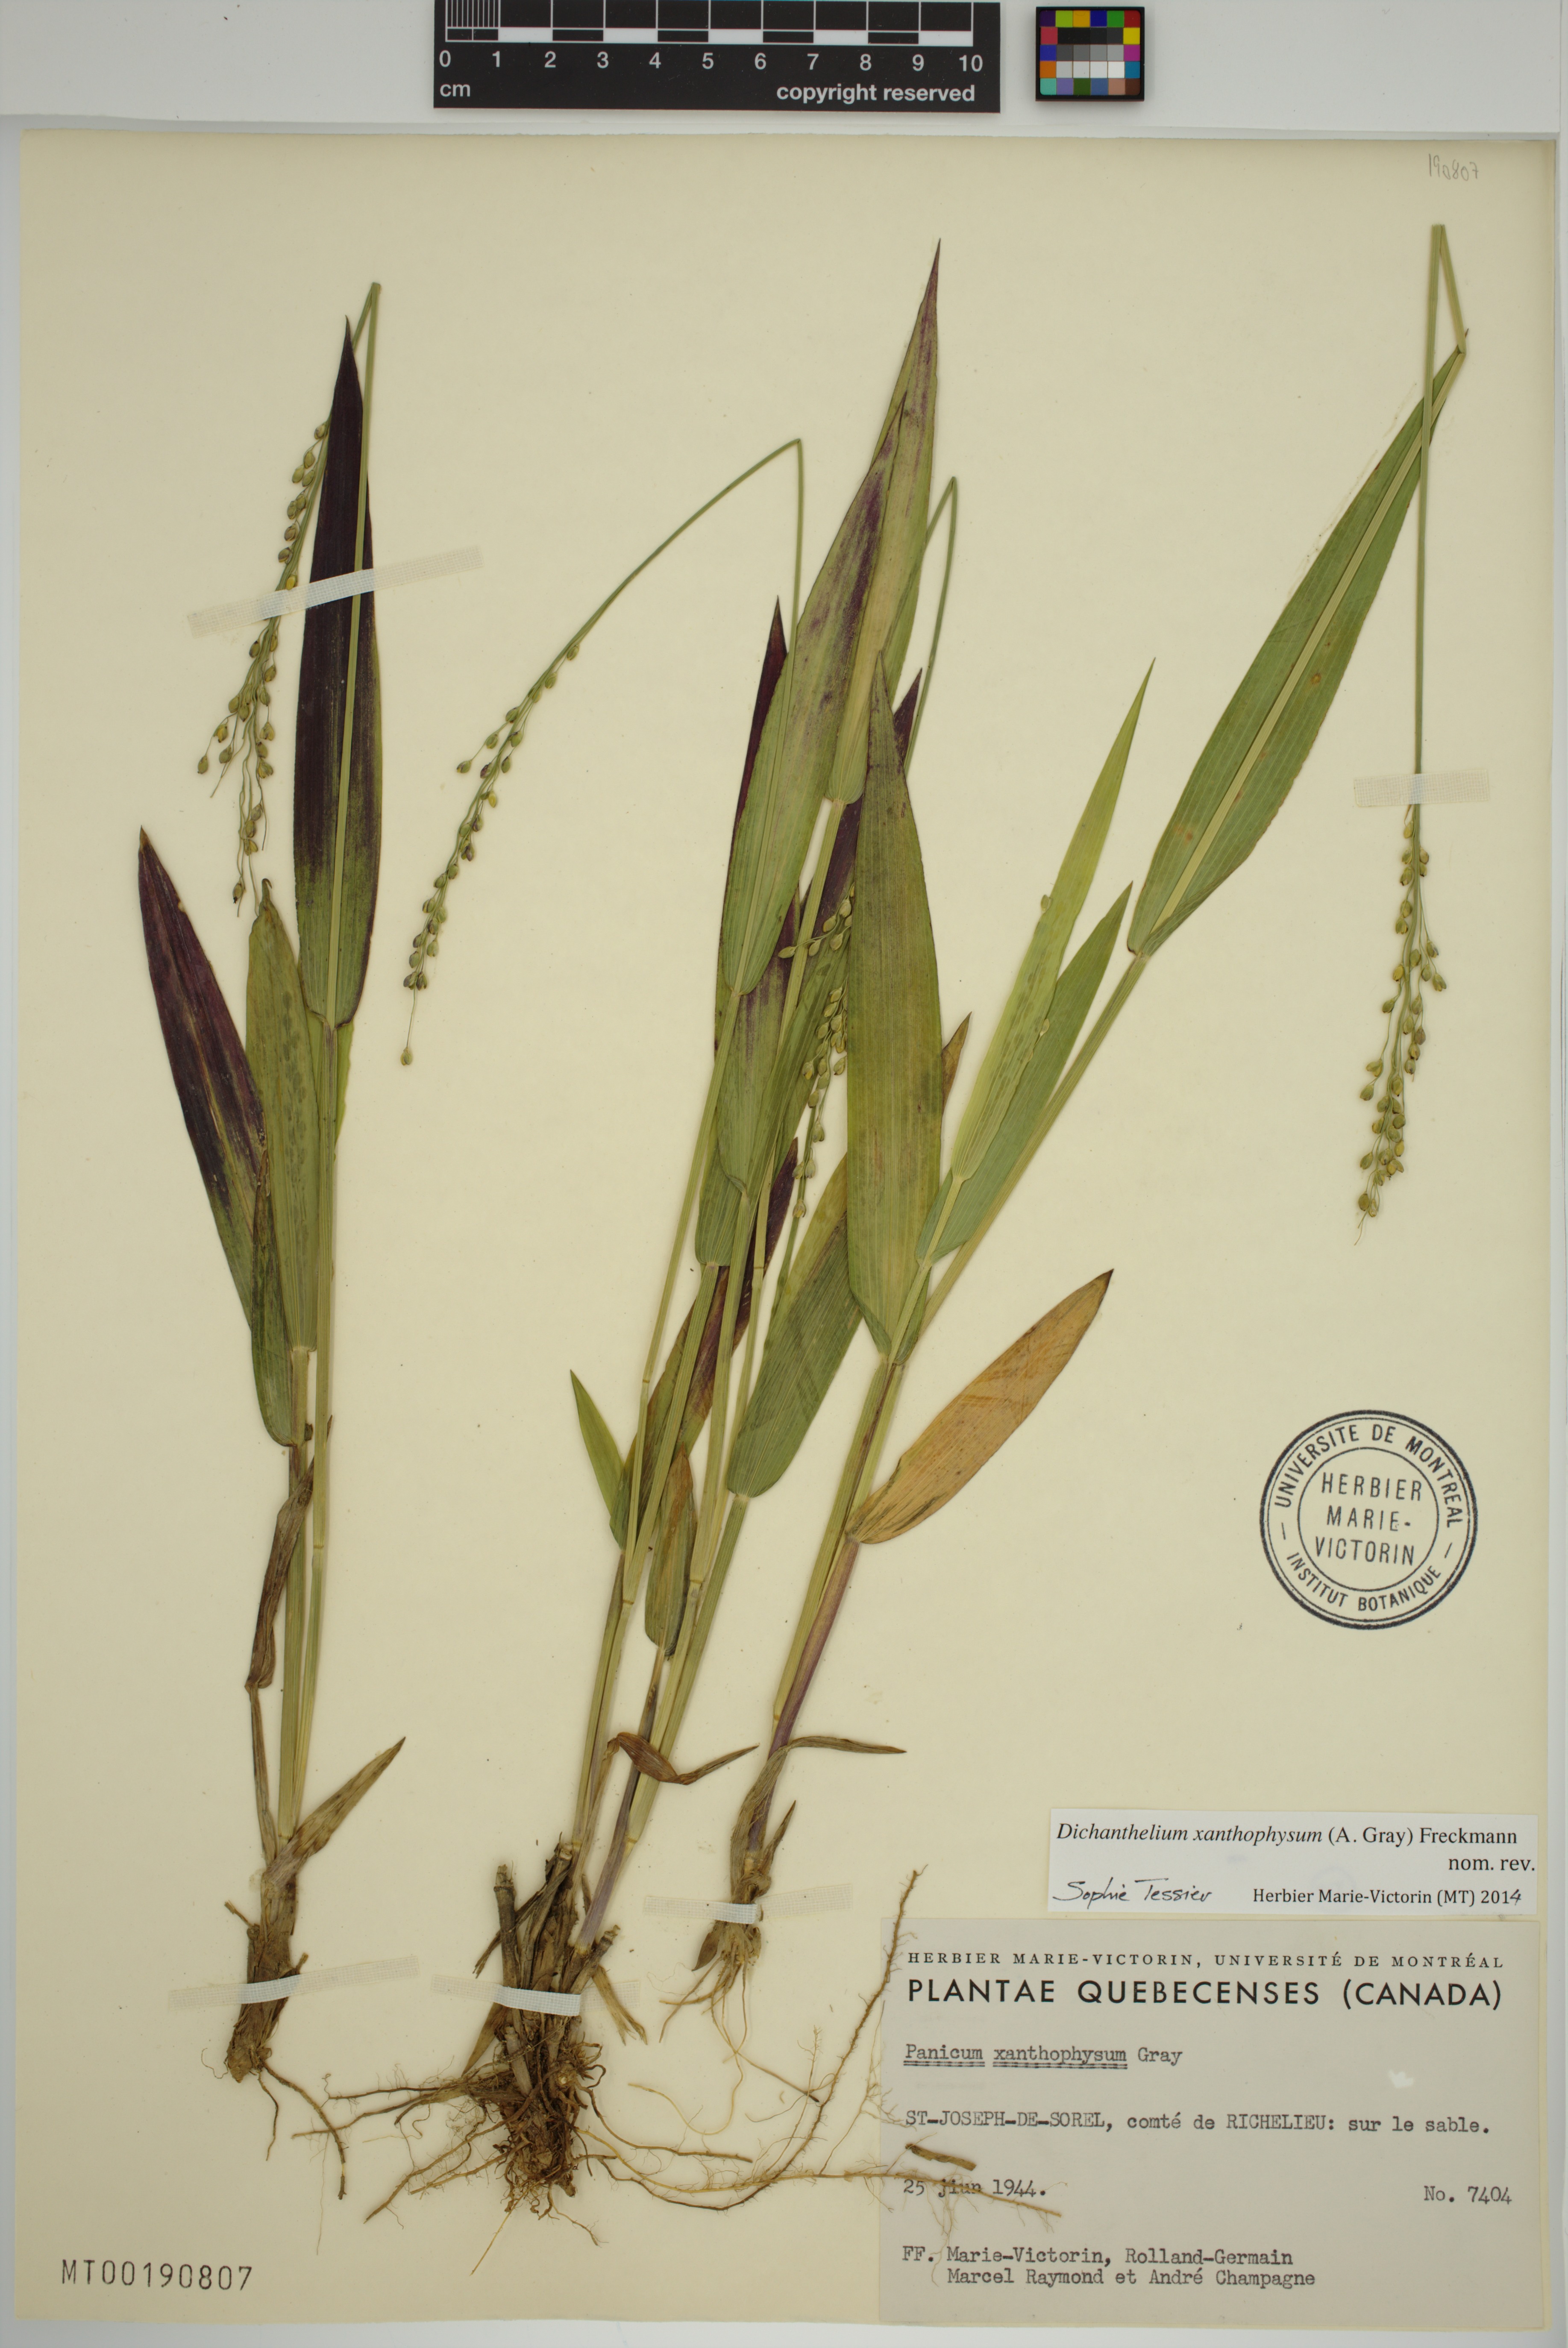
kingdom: Plantae
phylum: Tracheophyta
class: Liliopsida
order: Poales
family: Poaceae
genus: Dichanthelium
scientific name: Dichanthelium xanthophysum
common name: Pale panicgrass
